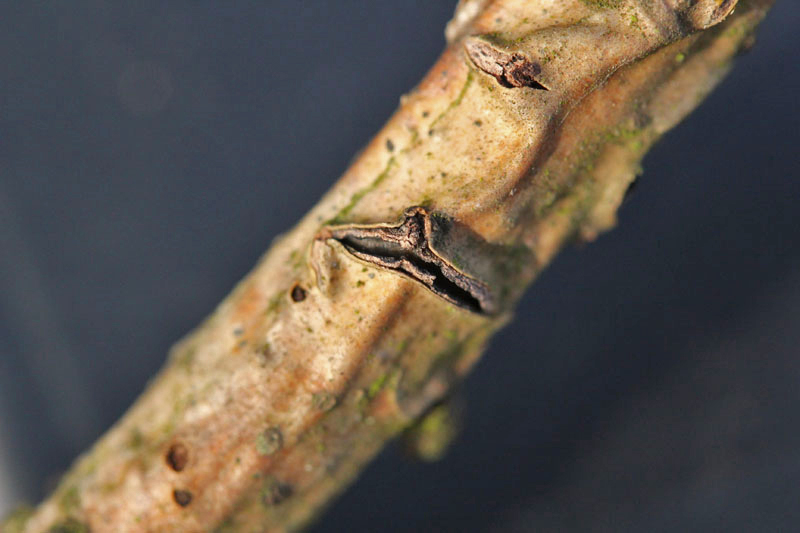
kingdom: Fungi
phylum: Ascomycota
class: Leotiomycetes
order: Rhytismatales
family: Rhytismataceae
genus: Colpoma
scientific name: Colpoma quercinum
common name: ege-sprækkeskive
